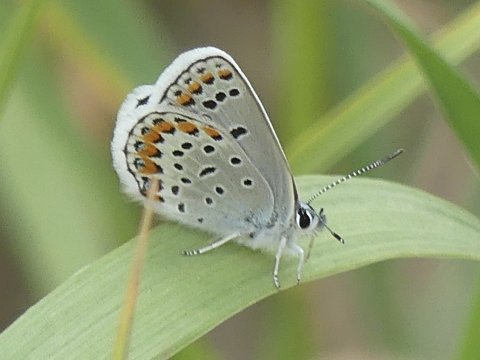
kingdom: Animalia
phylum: Arthropoda
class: Insecta
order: Lepidoptera
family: Lycaenidae
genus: Lycaeides
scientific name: Lycaeides melissa
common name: Melissa Blue
